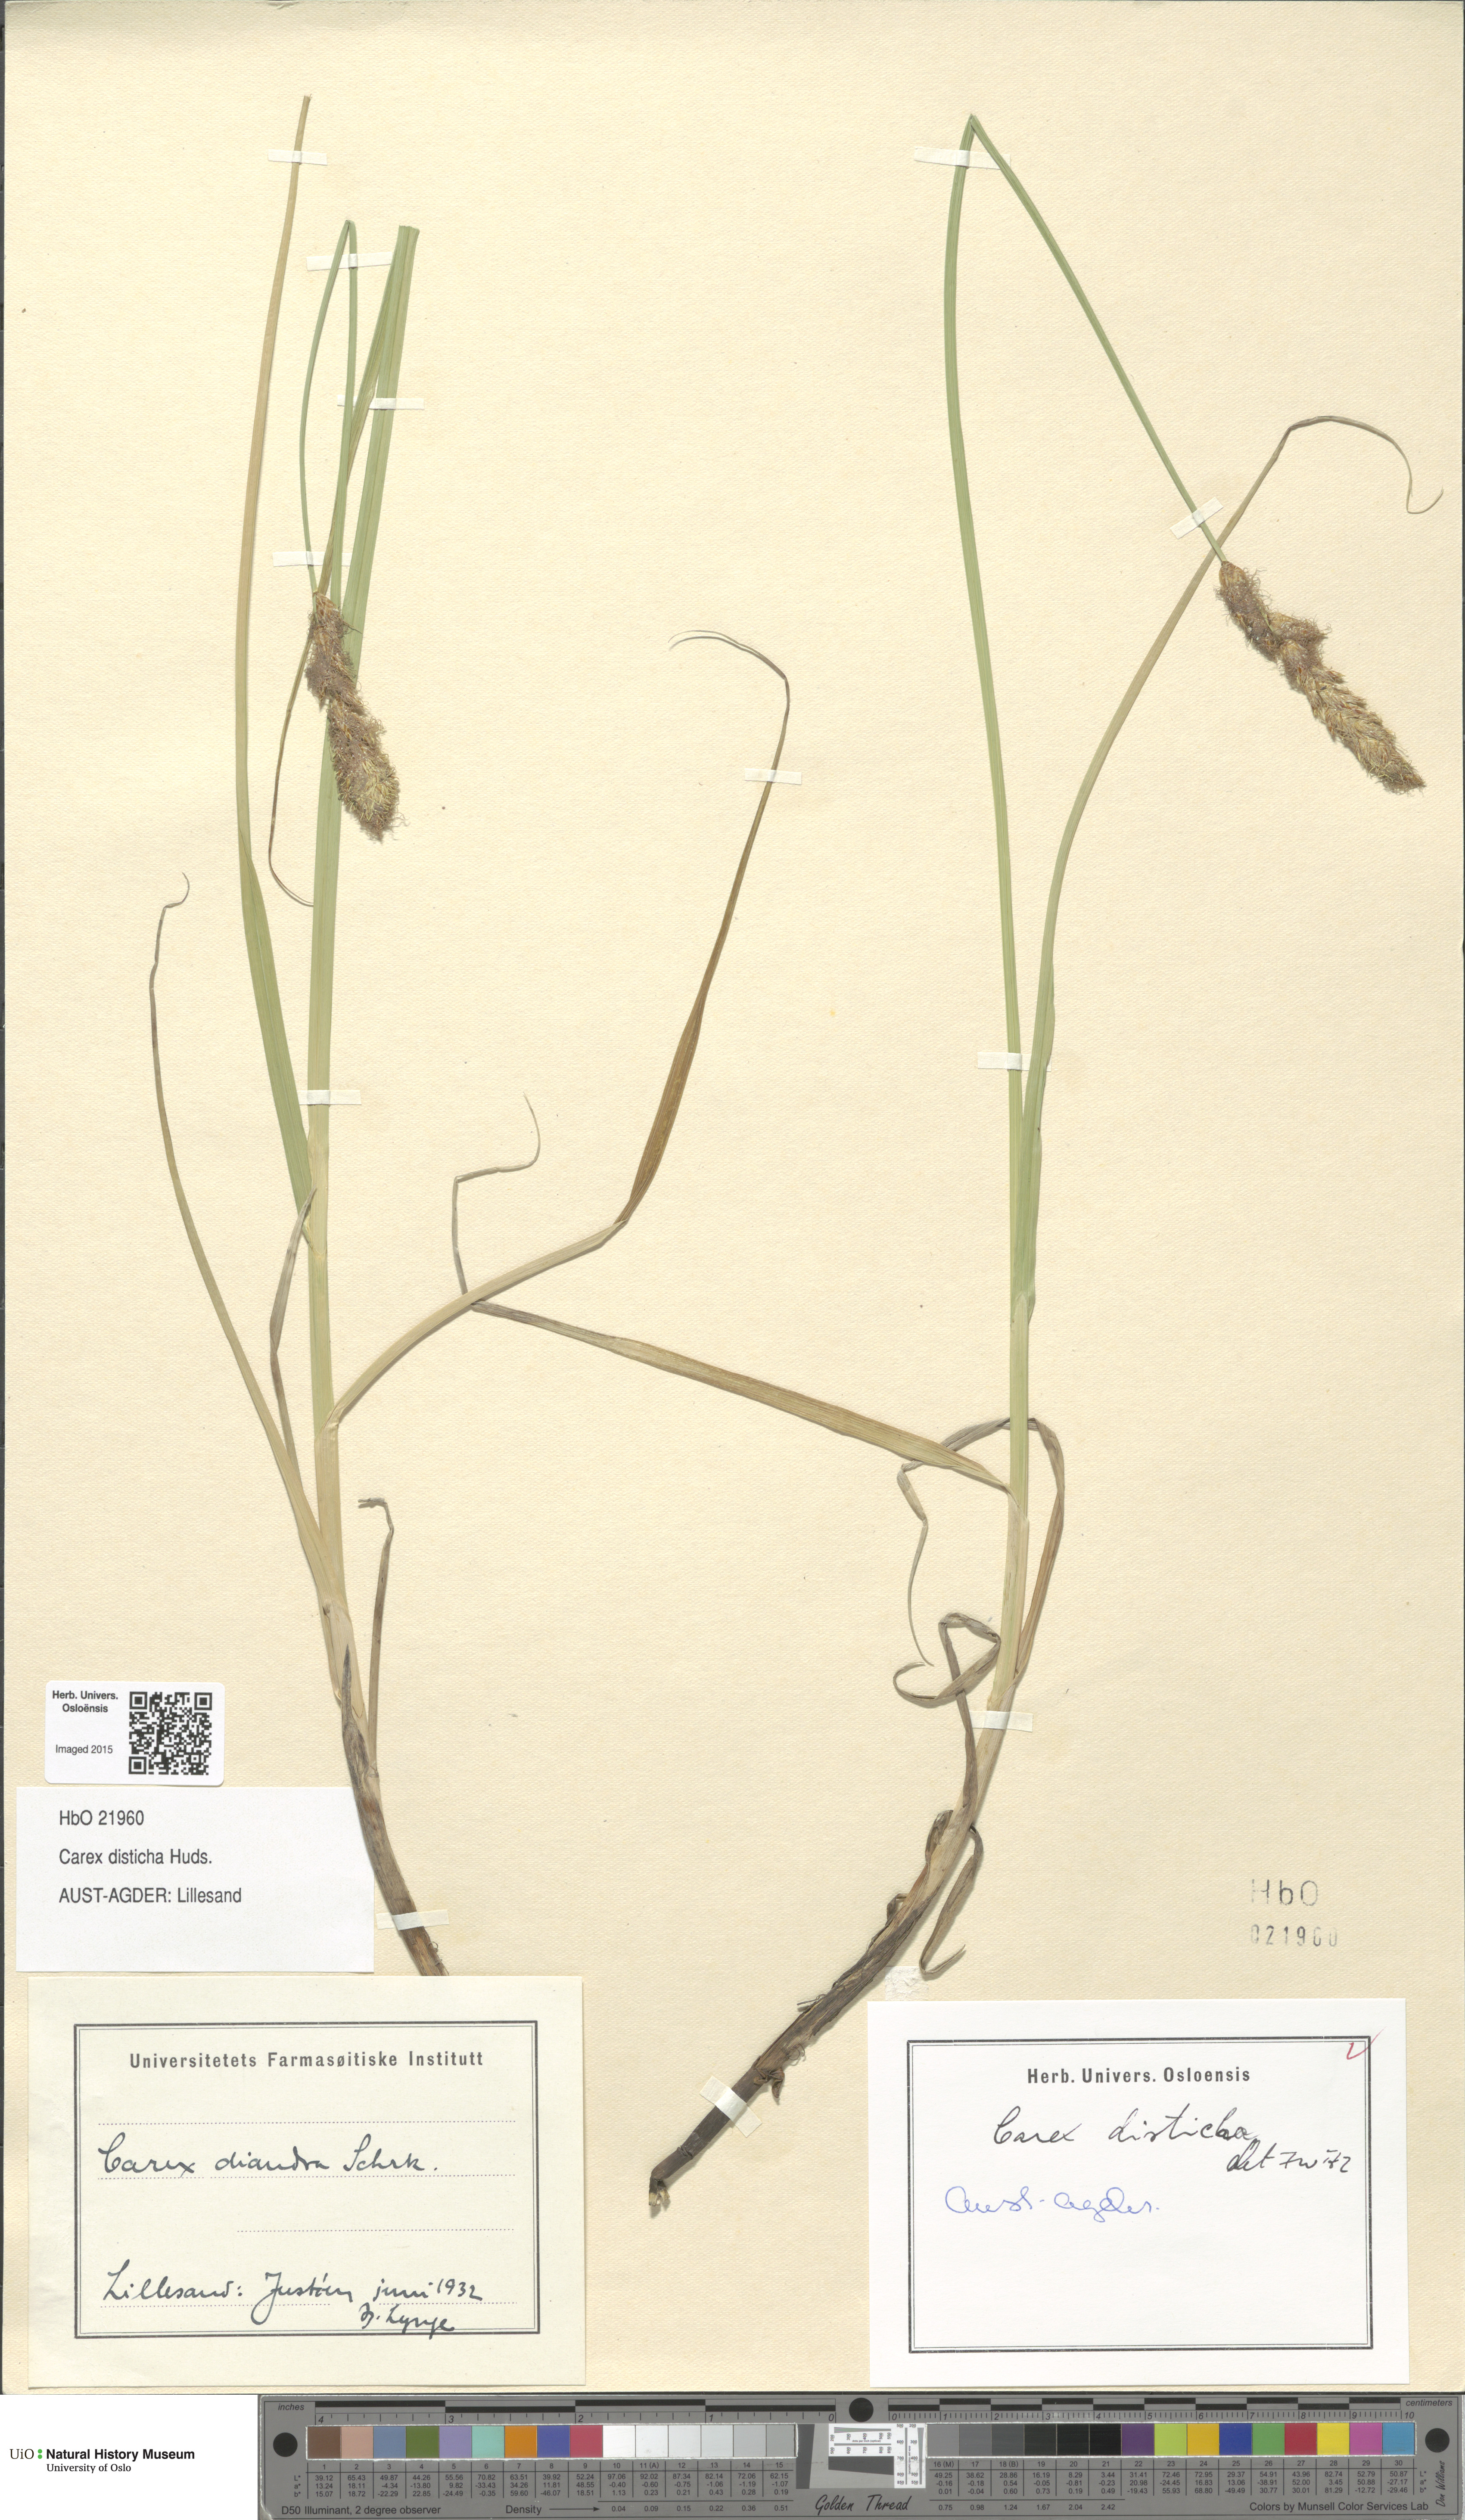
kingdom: Plantae
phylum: Tracheophyta
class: Liliopsida
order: Poales
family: Cyperaceae
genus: Carex
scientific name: Carex disticha
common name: Brown sedge
